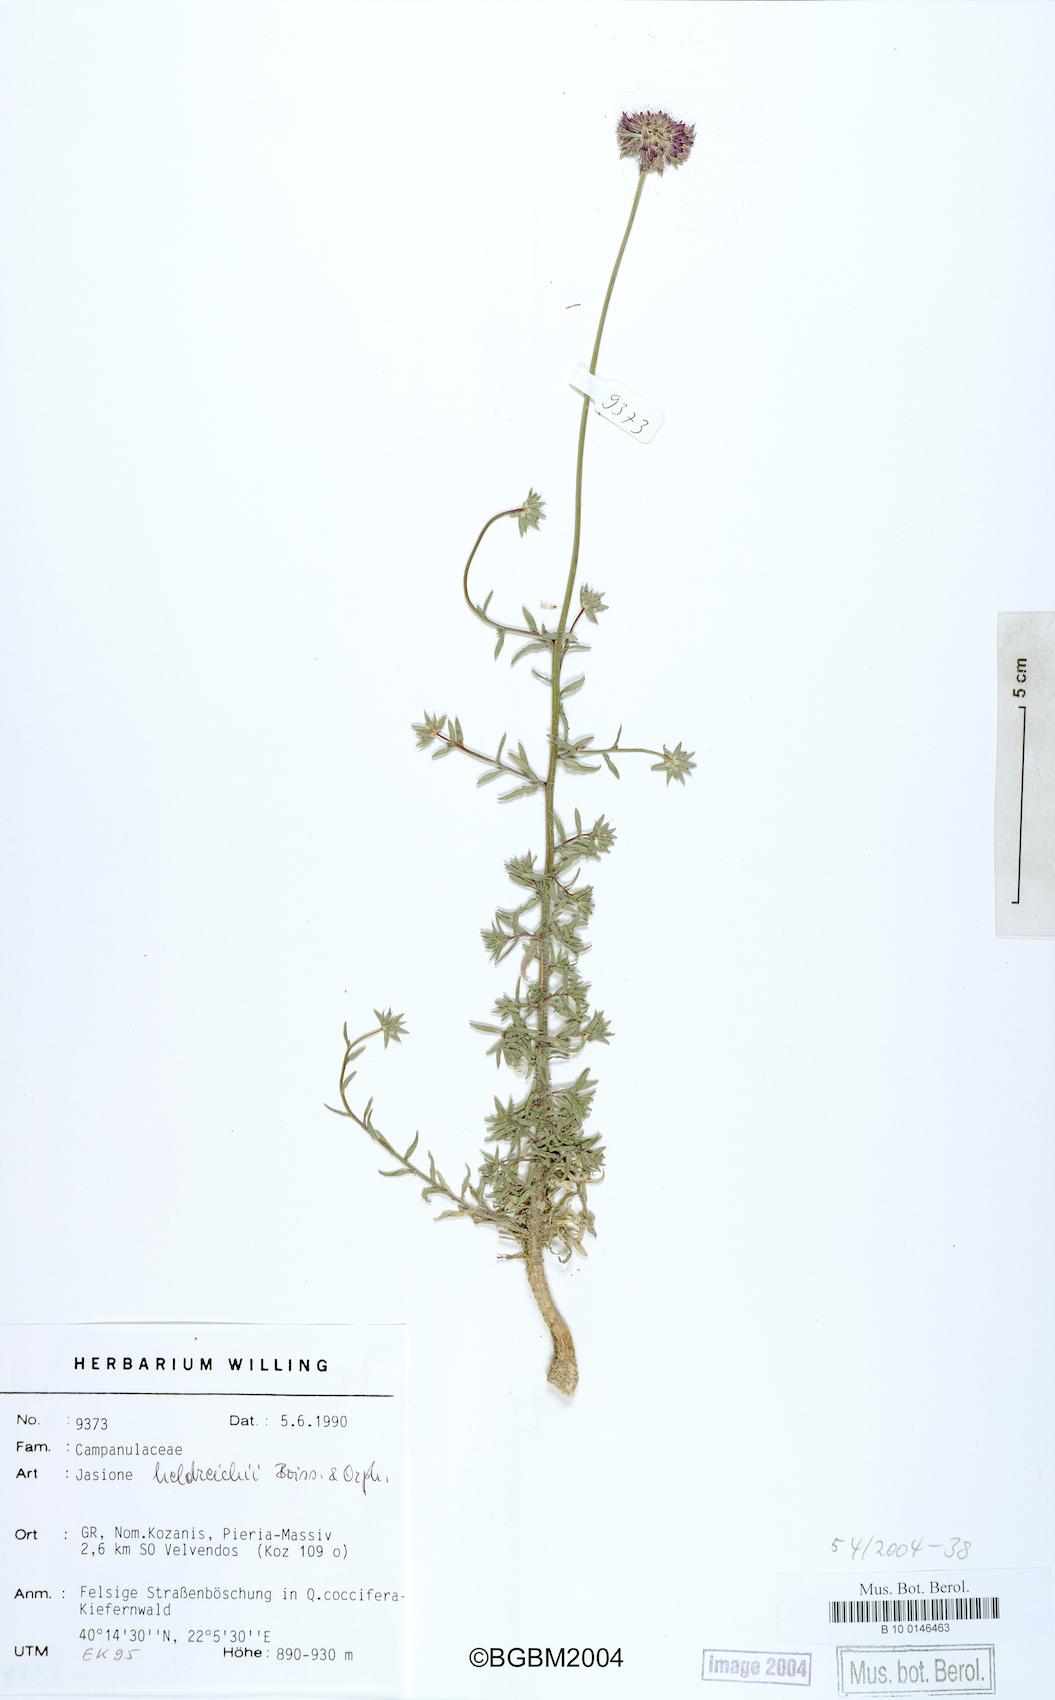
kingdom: Plantae
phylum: Tracheophyta
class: Magnoliopsida
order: Asterales
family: Campanulaceae
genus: Jasione
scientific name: Jasione heldreichii
